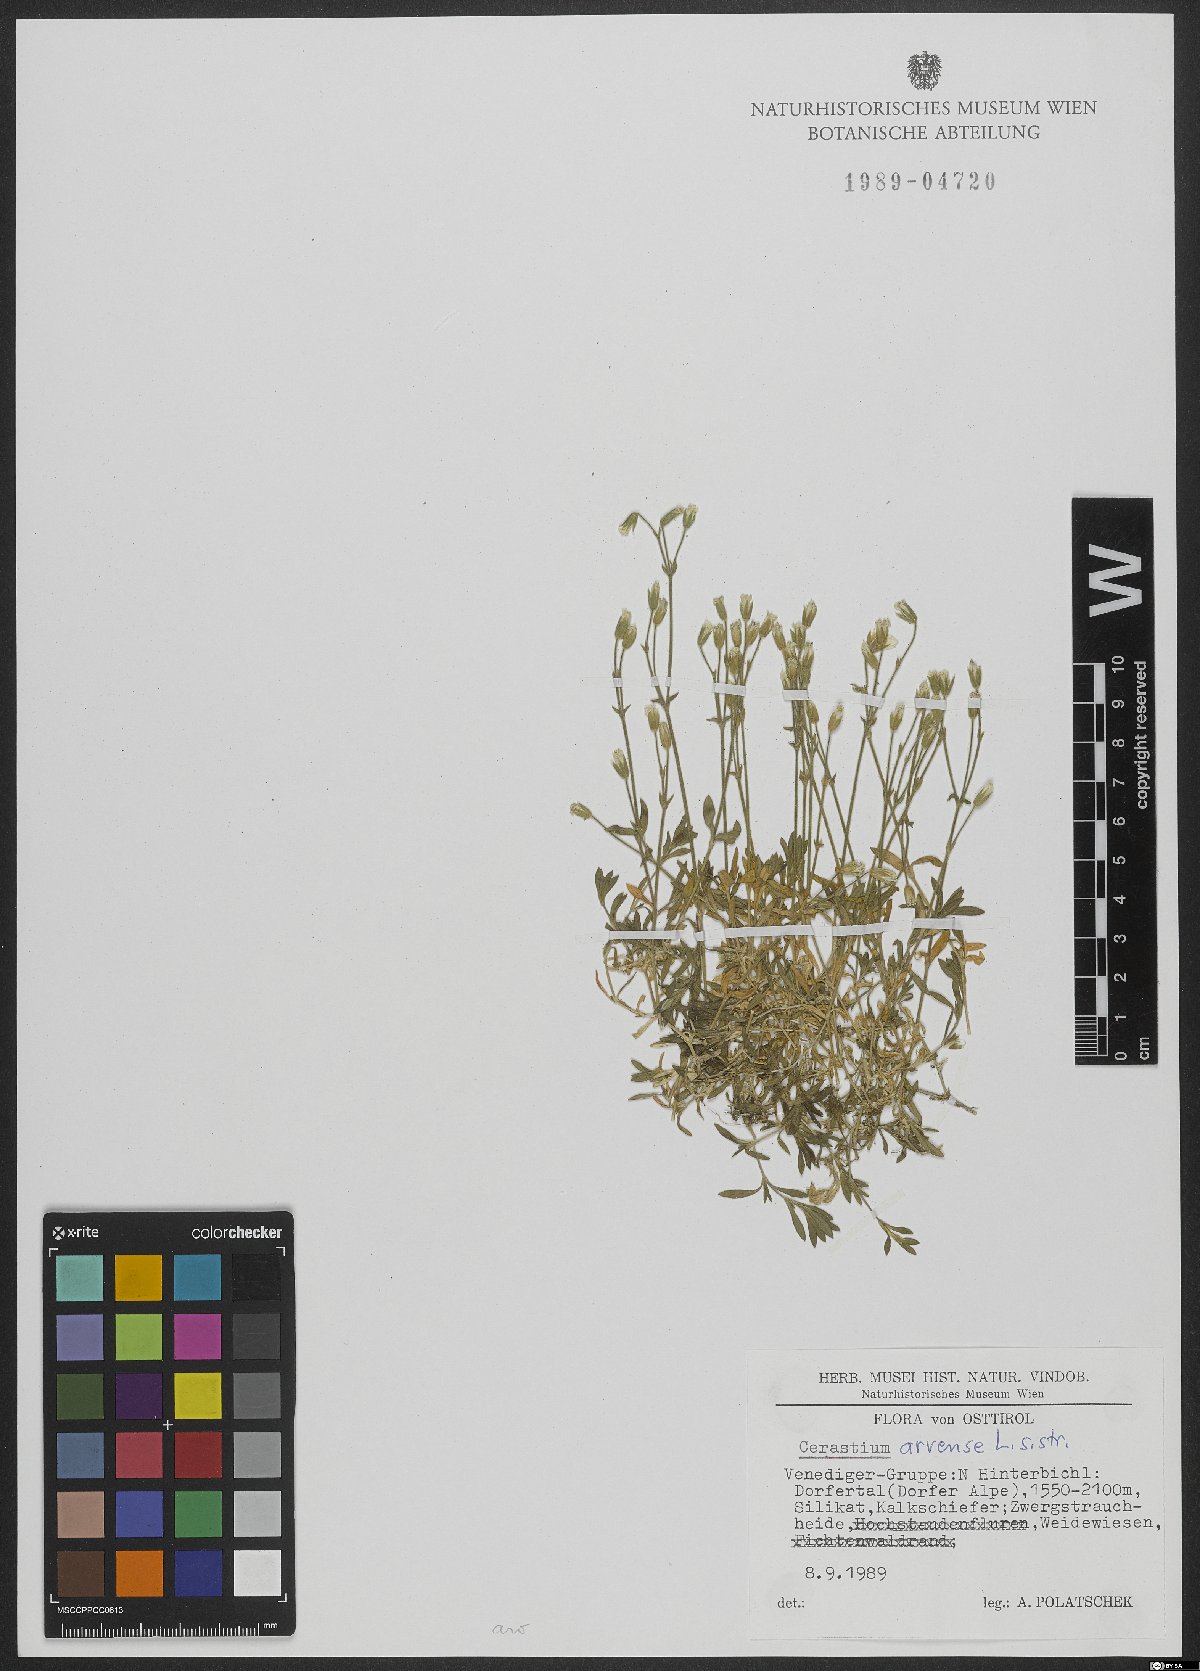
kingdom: Plantae
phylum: Tracheophyta
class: Magnoliopsida
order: Caryophyllales
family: Caryophyllaceae
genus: Cerastium
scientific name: Cerastium arvense
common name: Field mouse-ear
